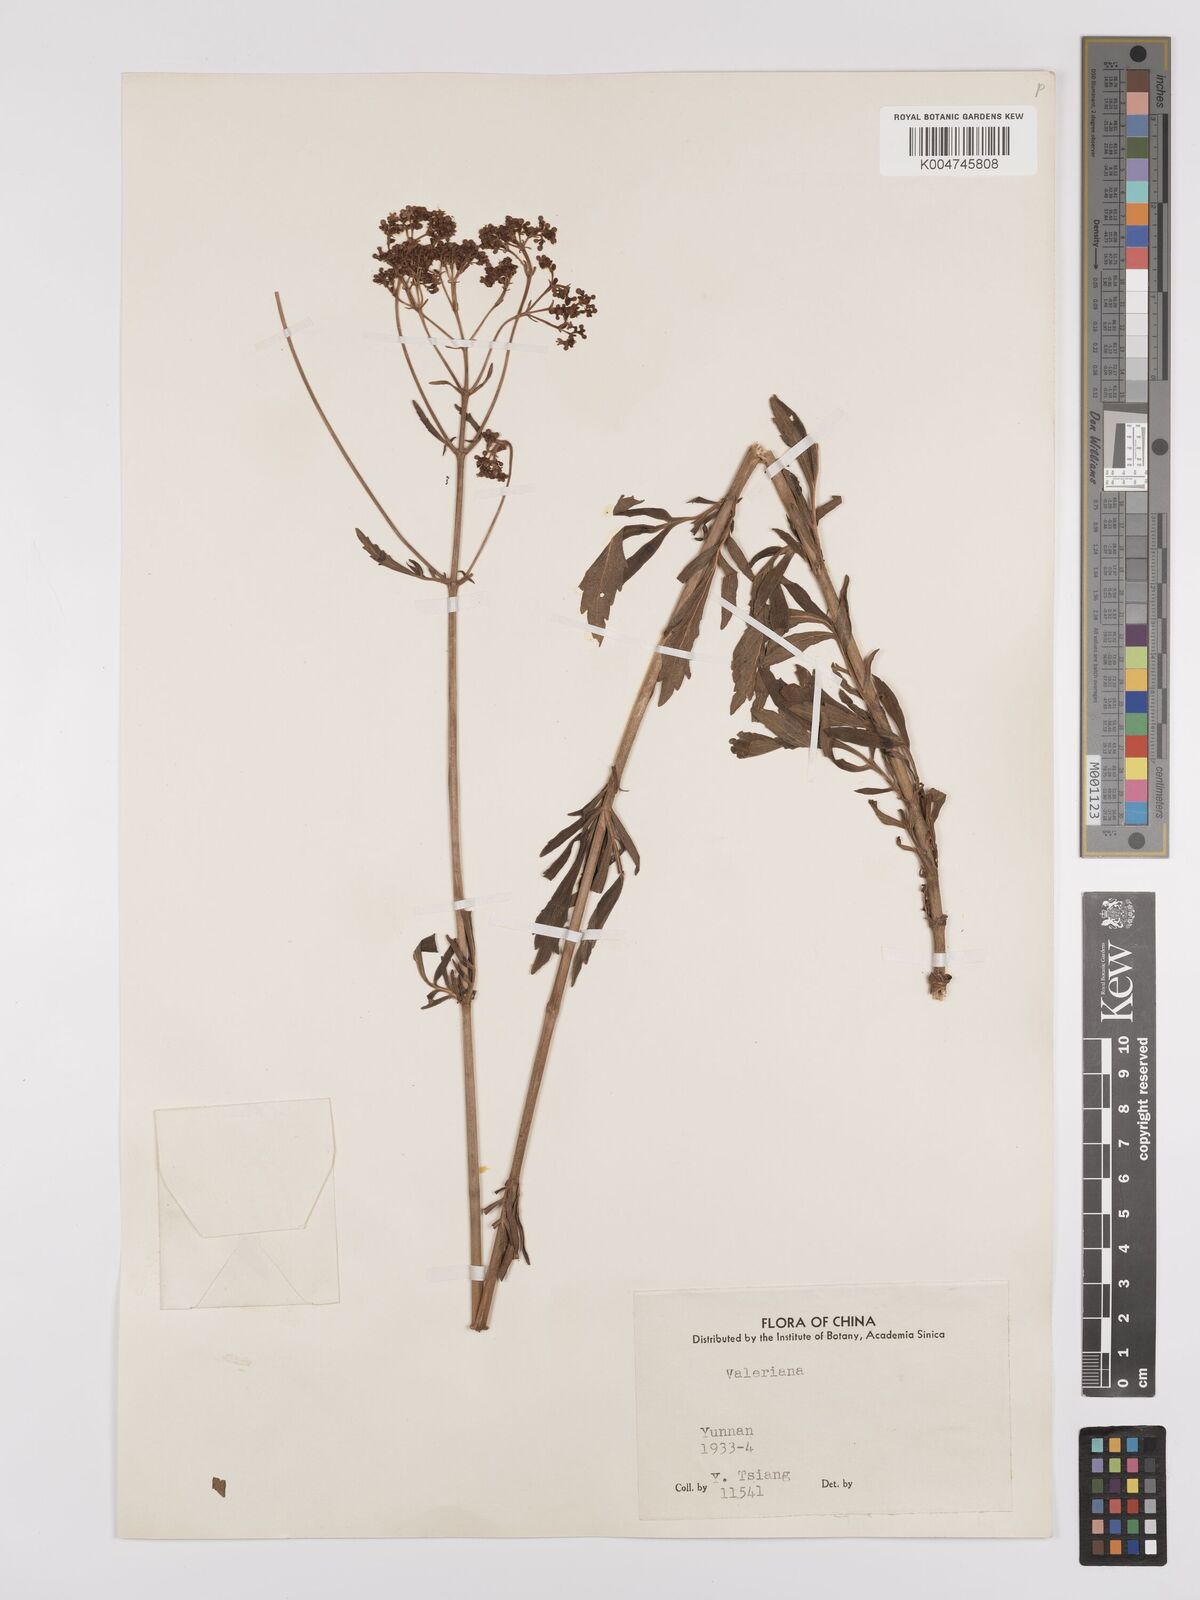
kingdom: Plantae
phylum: Tracheophyta
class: Magnoliopsida
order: Dipsacales
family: Caprifoliaceae
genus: Patrinia
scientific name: Patrinia
